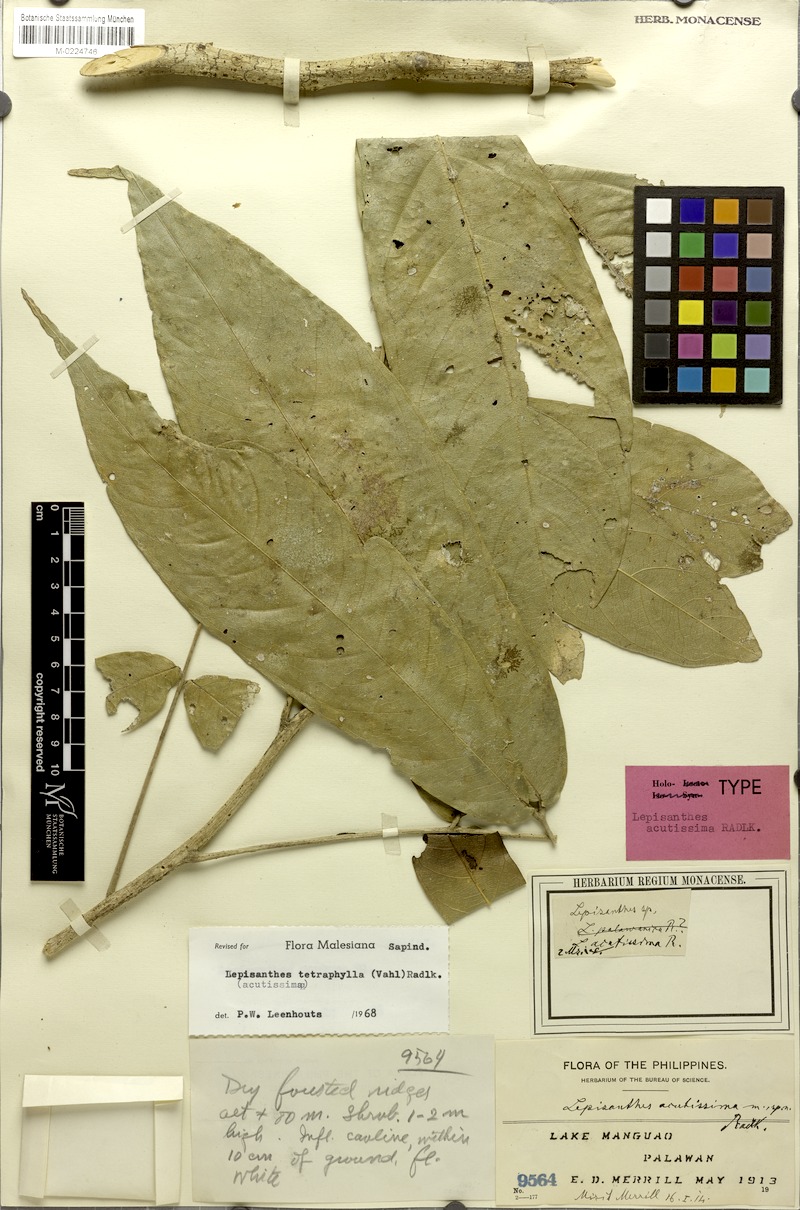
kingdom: Plantae
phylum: Tracheophyta
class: Magnoliopsida
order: Sapindales
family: Sapindaceae
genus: Lepisanthes
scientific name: Lepisanthes tetraphylla
